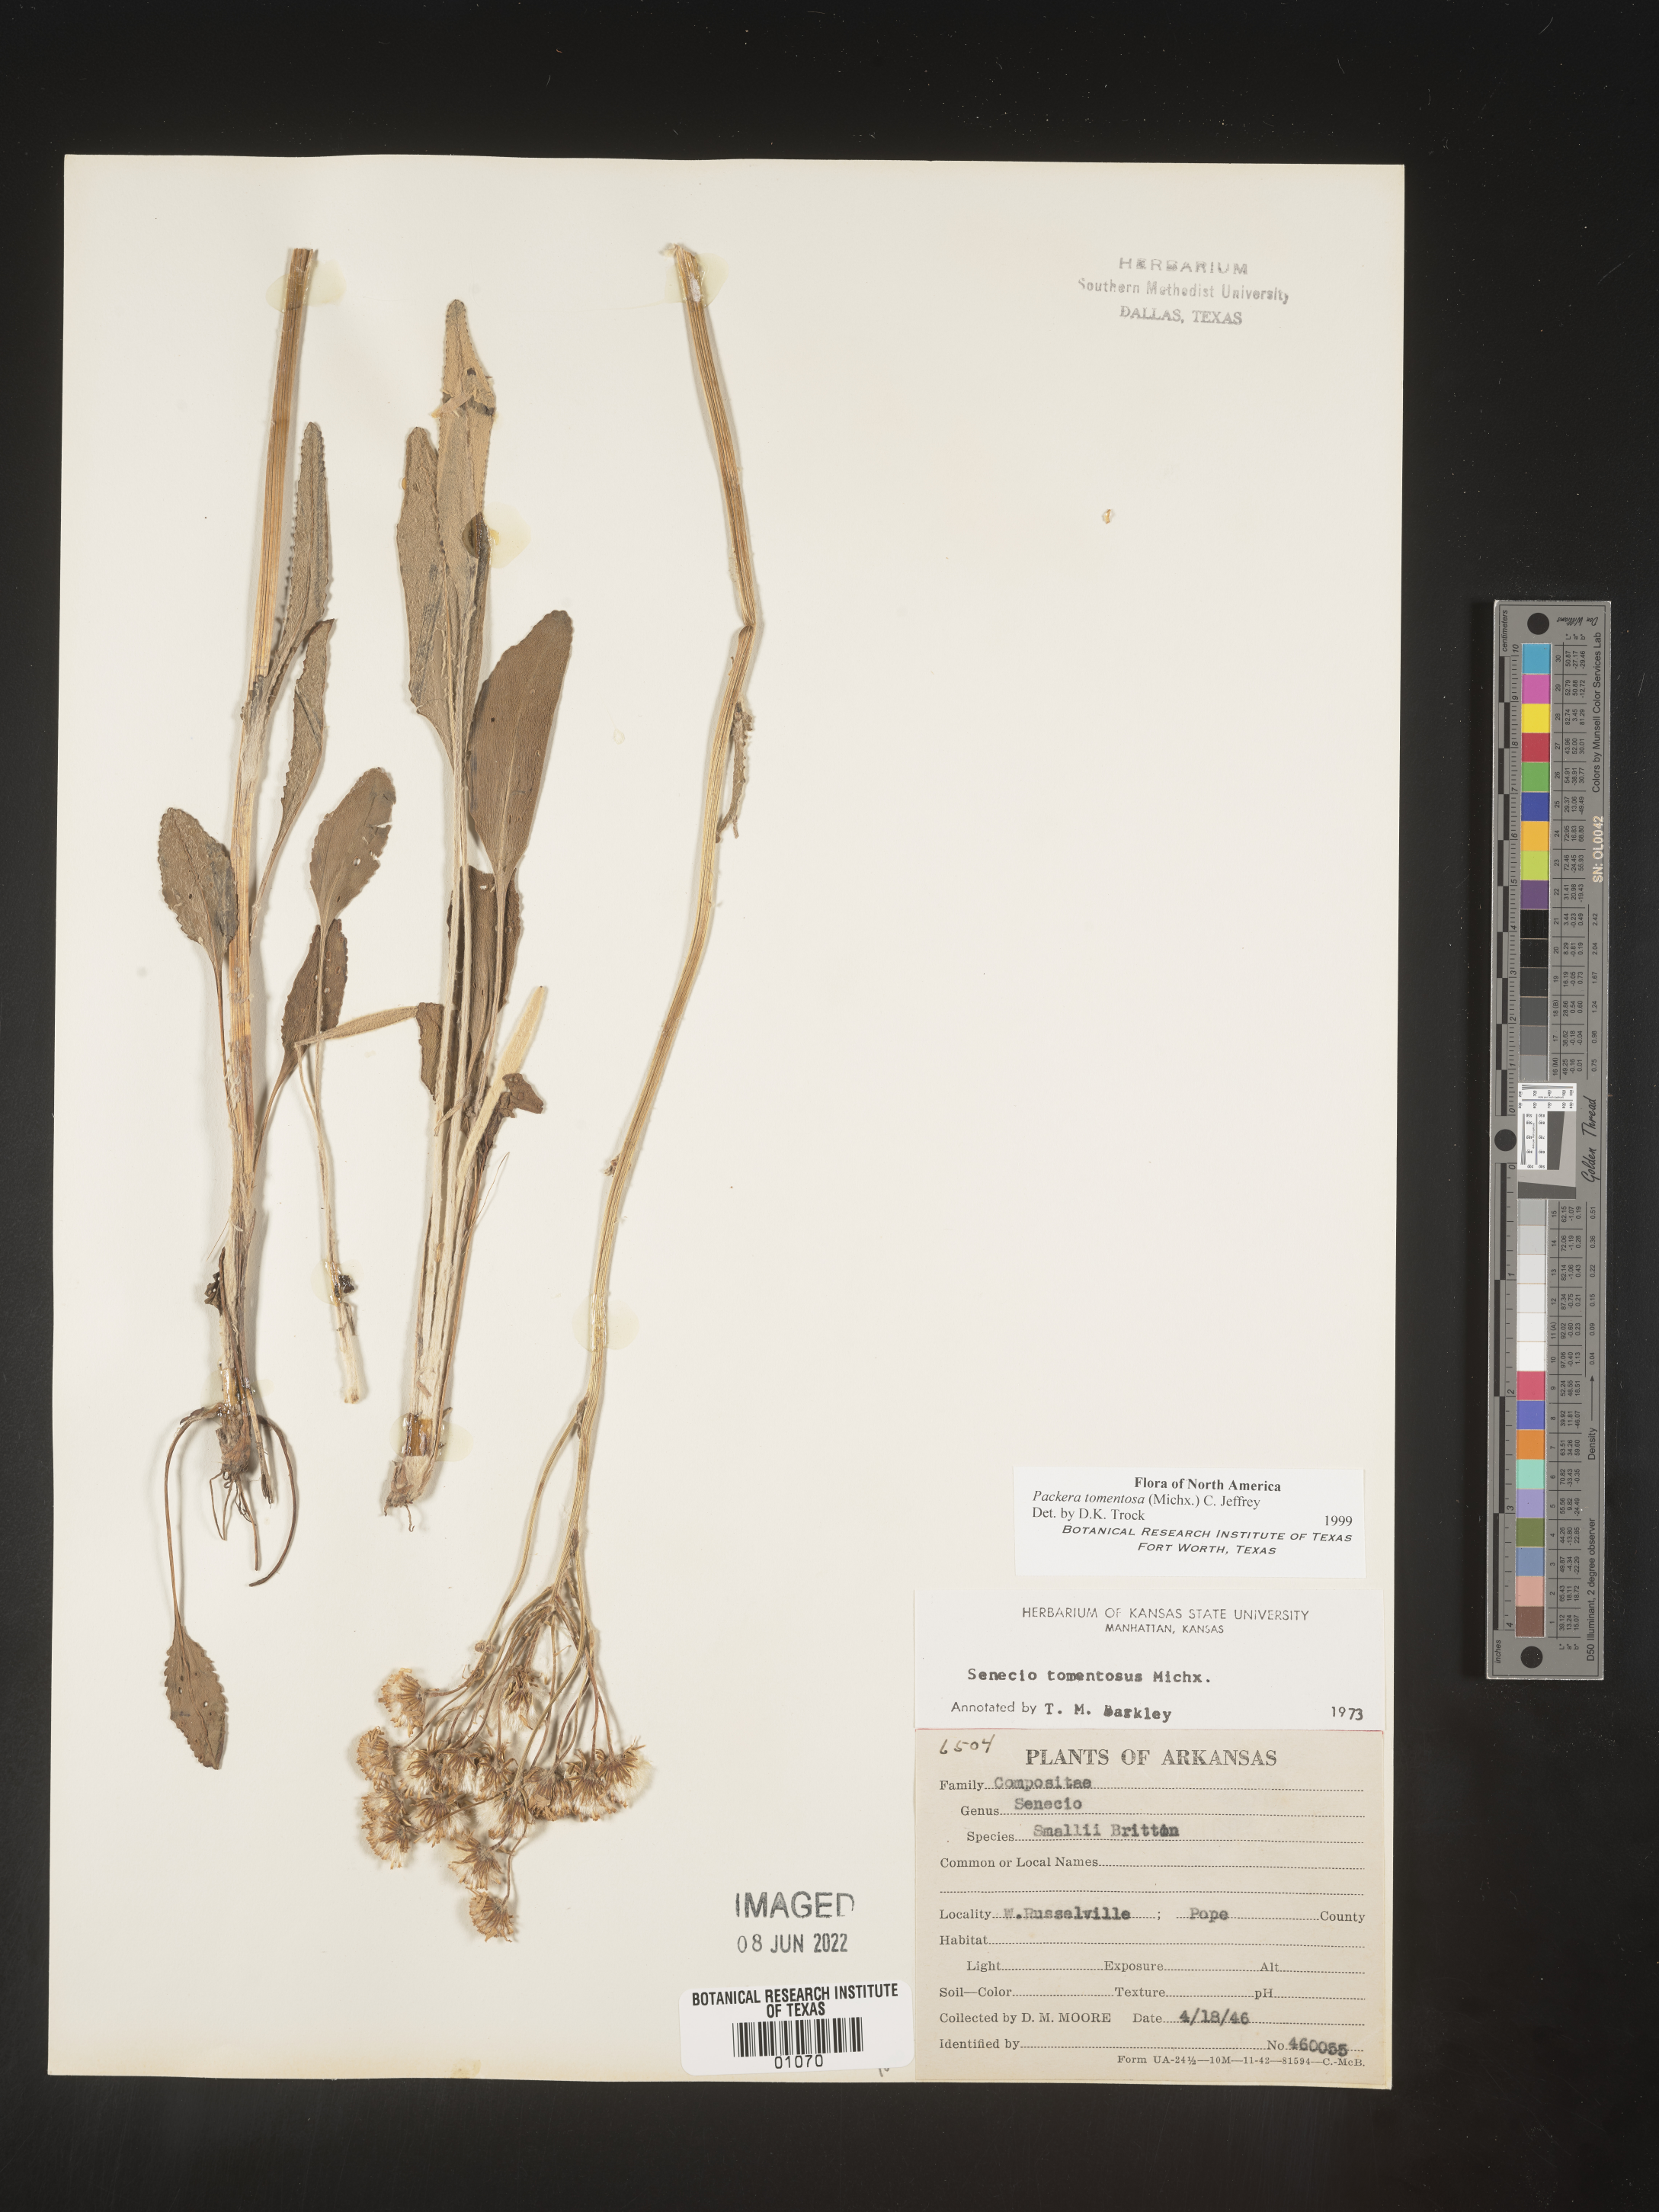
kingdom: Plantae
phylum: Tracheophyta
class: Magnoliopsida
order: Asterales
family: Asteraceae
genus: Packera
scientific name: Packera dubia
